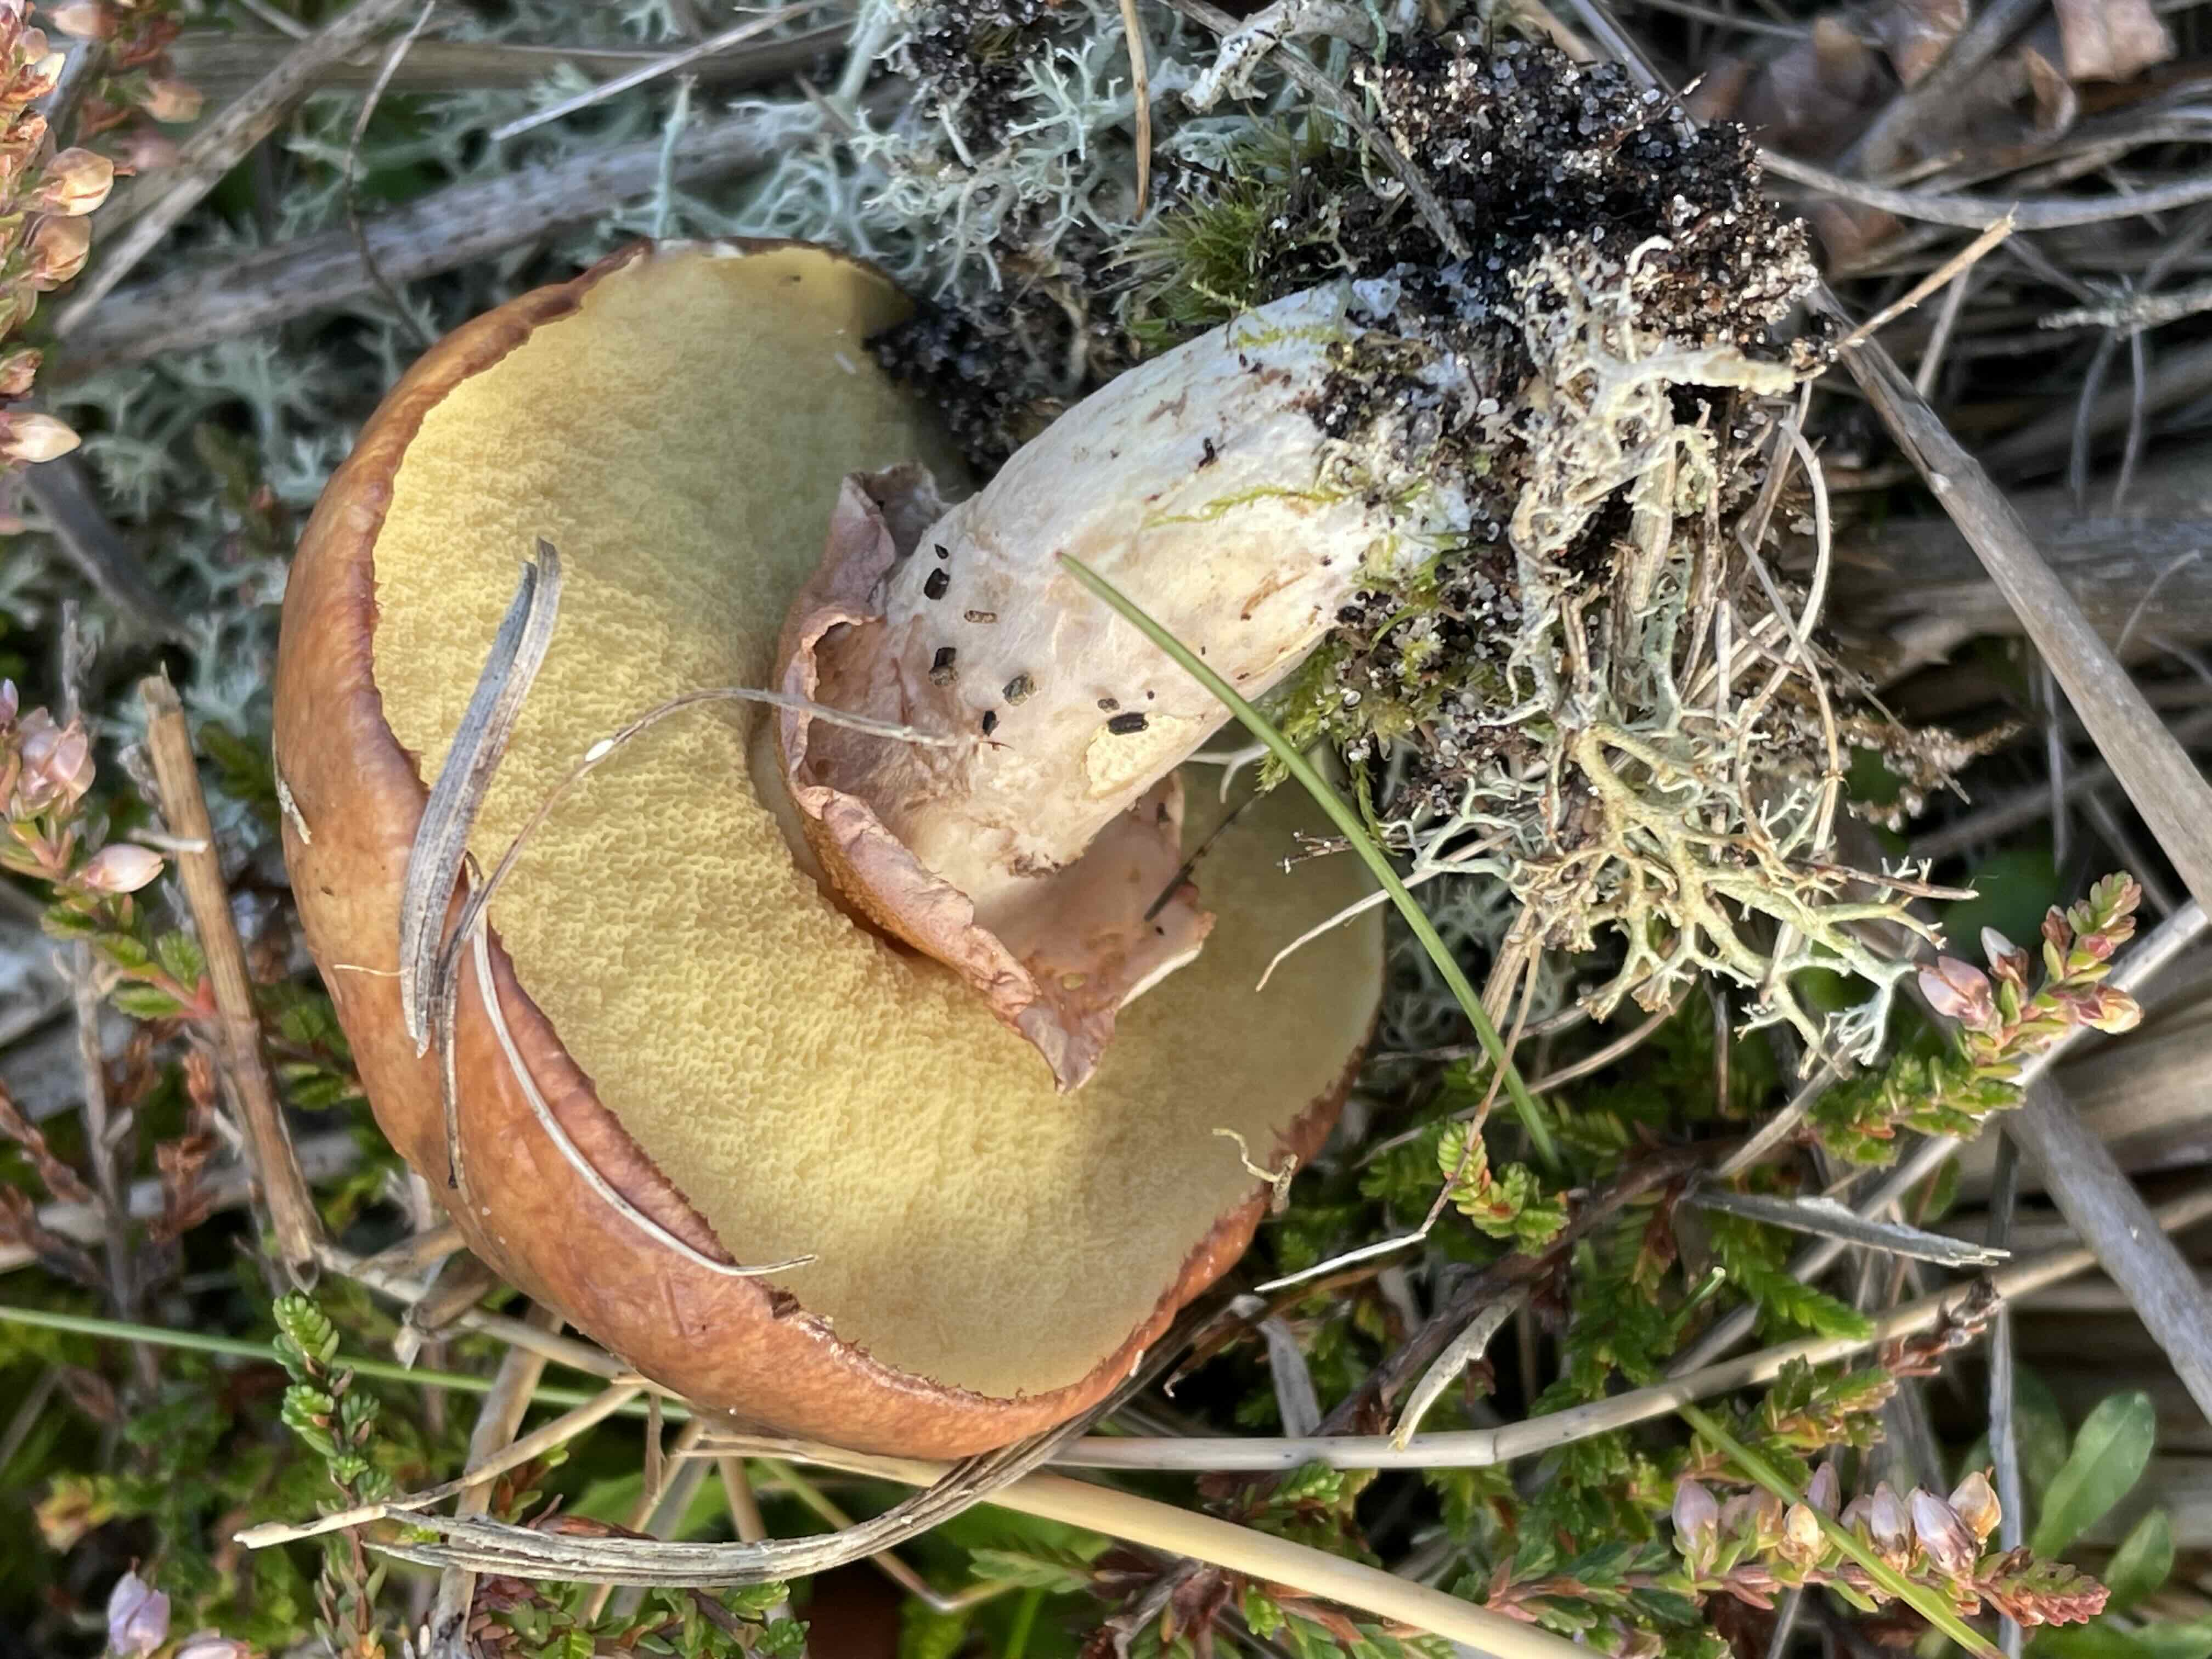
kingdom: Fungi
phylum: Basidiomycota
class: Agaricomycetes
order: Boletales
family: Suillaceae
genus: Suillus
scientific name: Suillus luteus
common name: brungul slimrørhat
